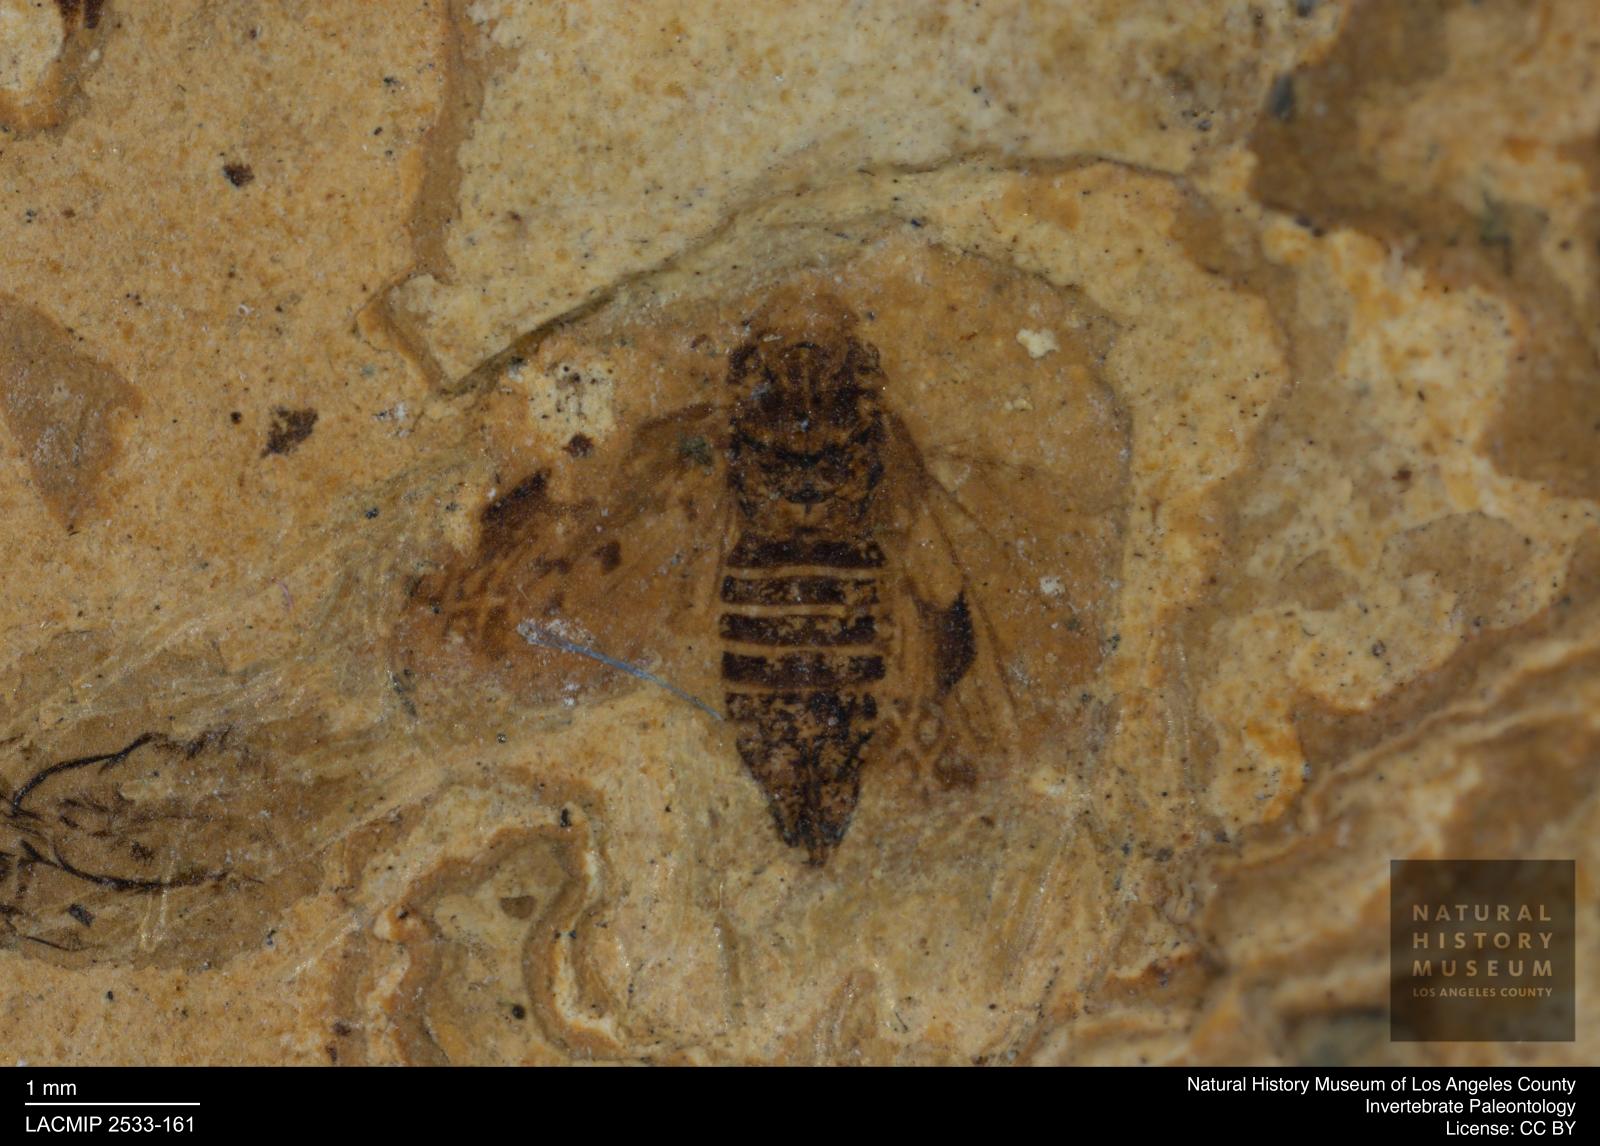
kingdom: Animalia
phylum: Arthropoda
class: Insecta
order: Hemiptera
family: Cicadellidae
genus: Deltocephalus
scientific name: Deltocephalus maculipennis
